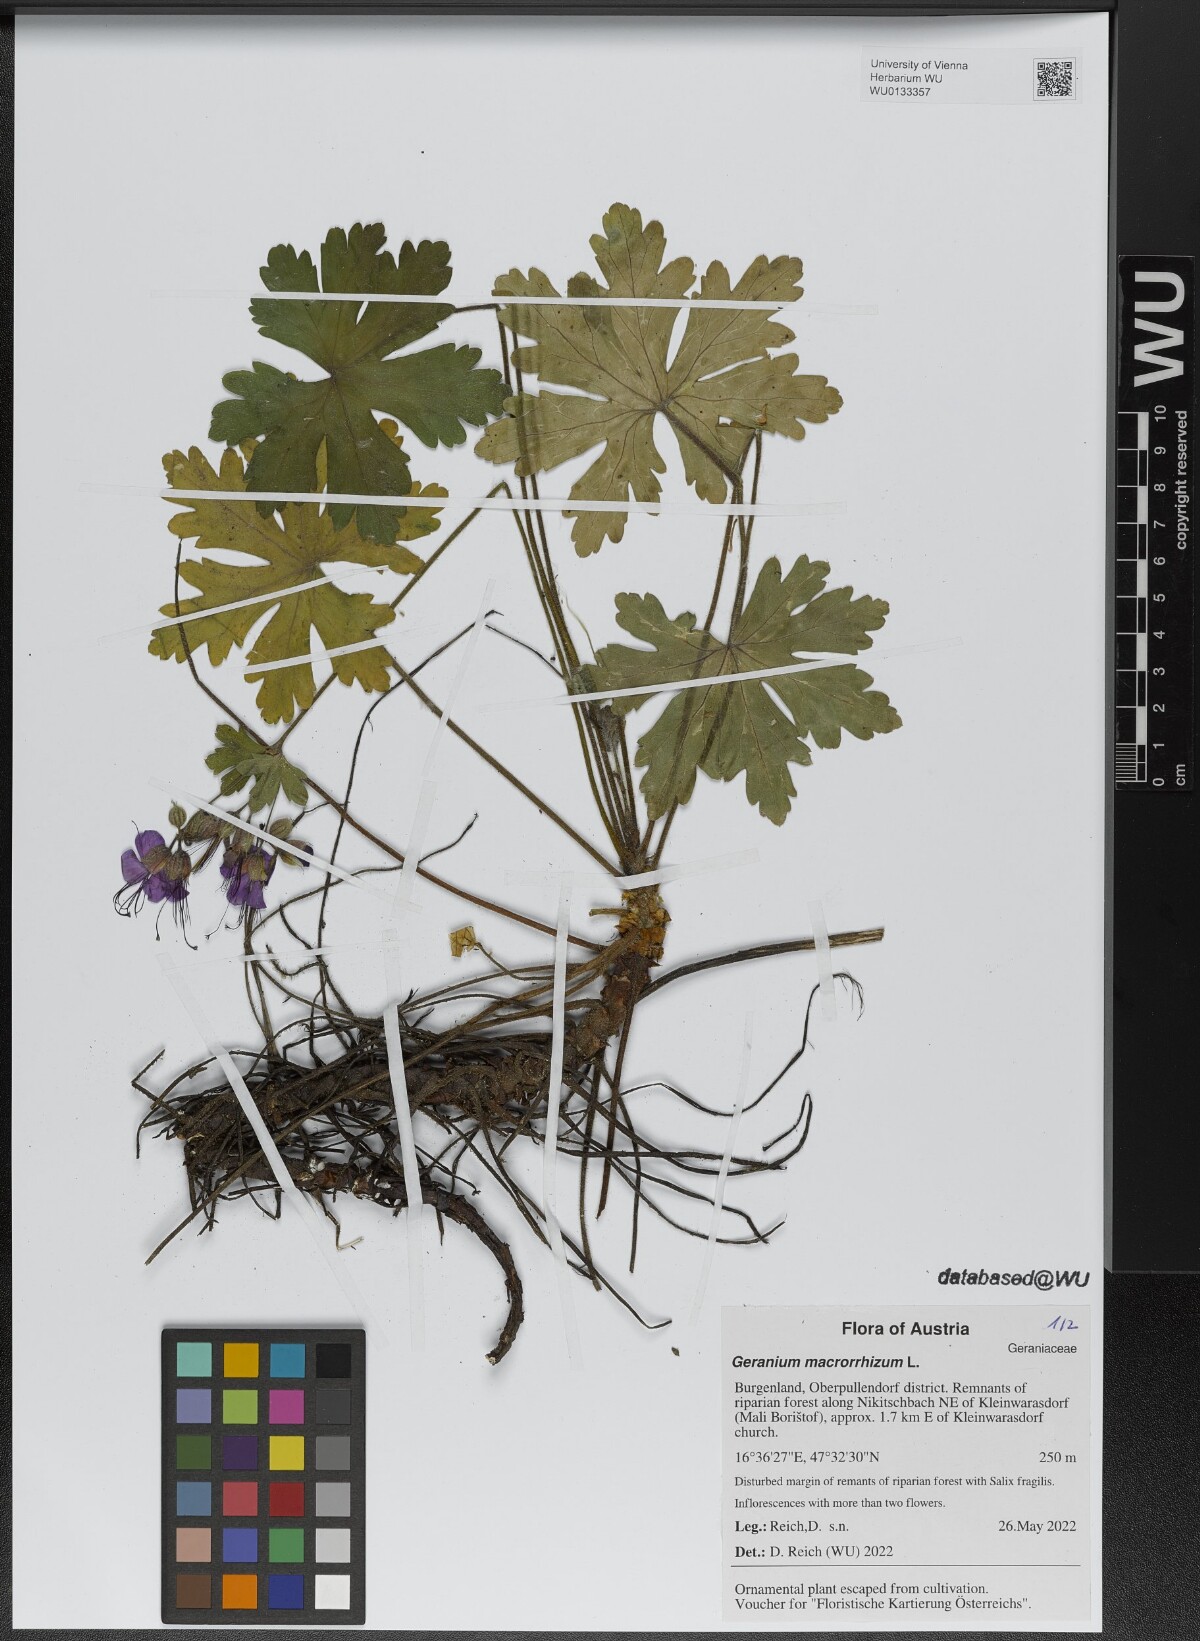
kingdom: Plantae
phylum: Tracheophyta
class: Magnoliopsida
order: Geraniales
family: Geraniaceae
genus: Geranium
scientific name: Geranium macrorrhizum
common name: Rock crane's-bill
